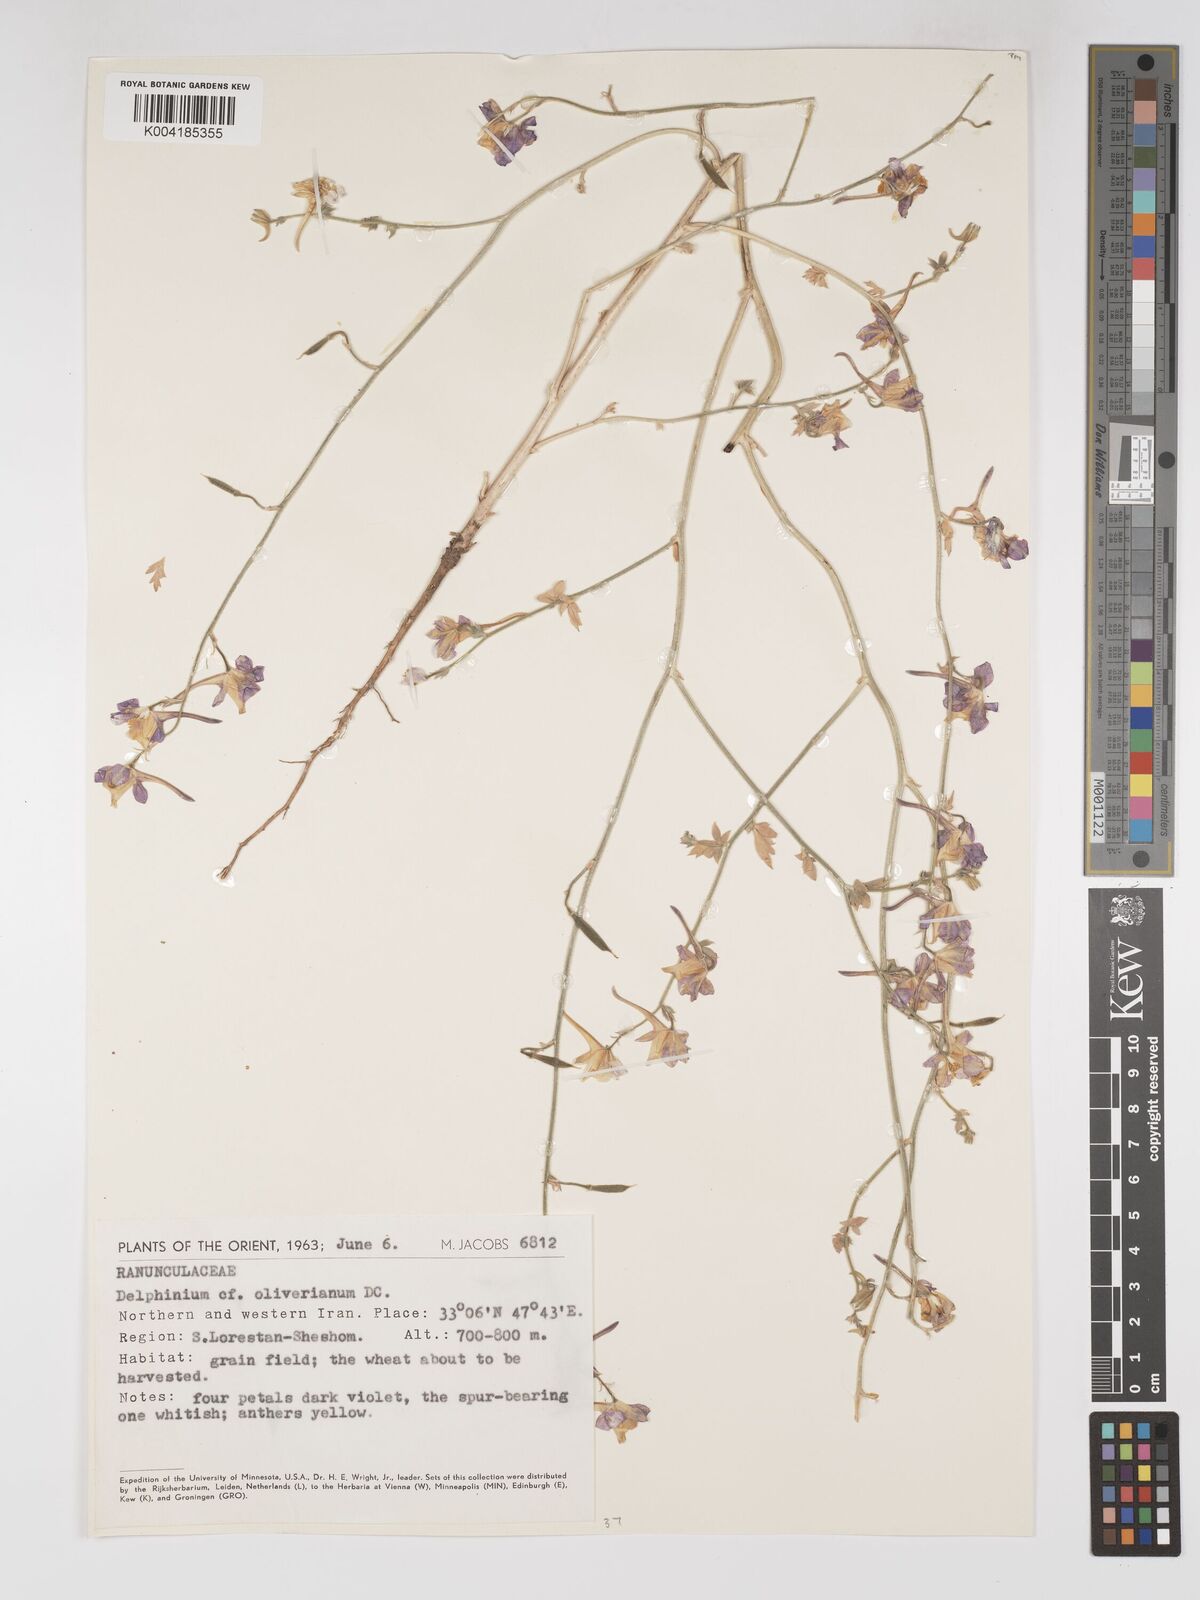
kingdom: Plantae
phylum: Tracheophyta
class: Magnoliopsida
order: Ranunculales
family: Ranunculaceae
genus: Delphinium
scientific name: Delphinium oliverianum
